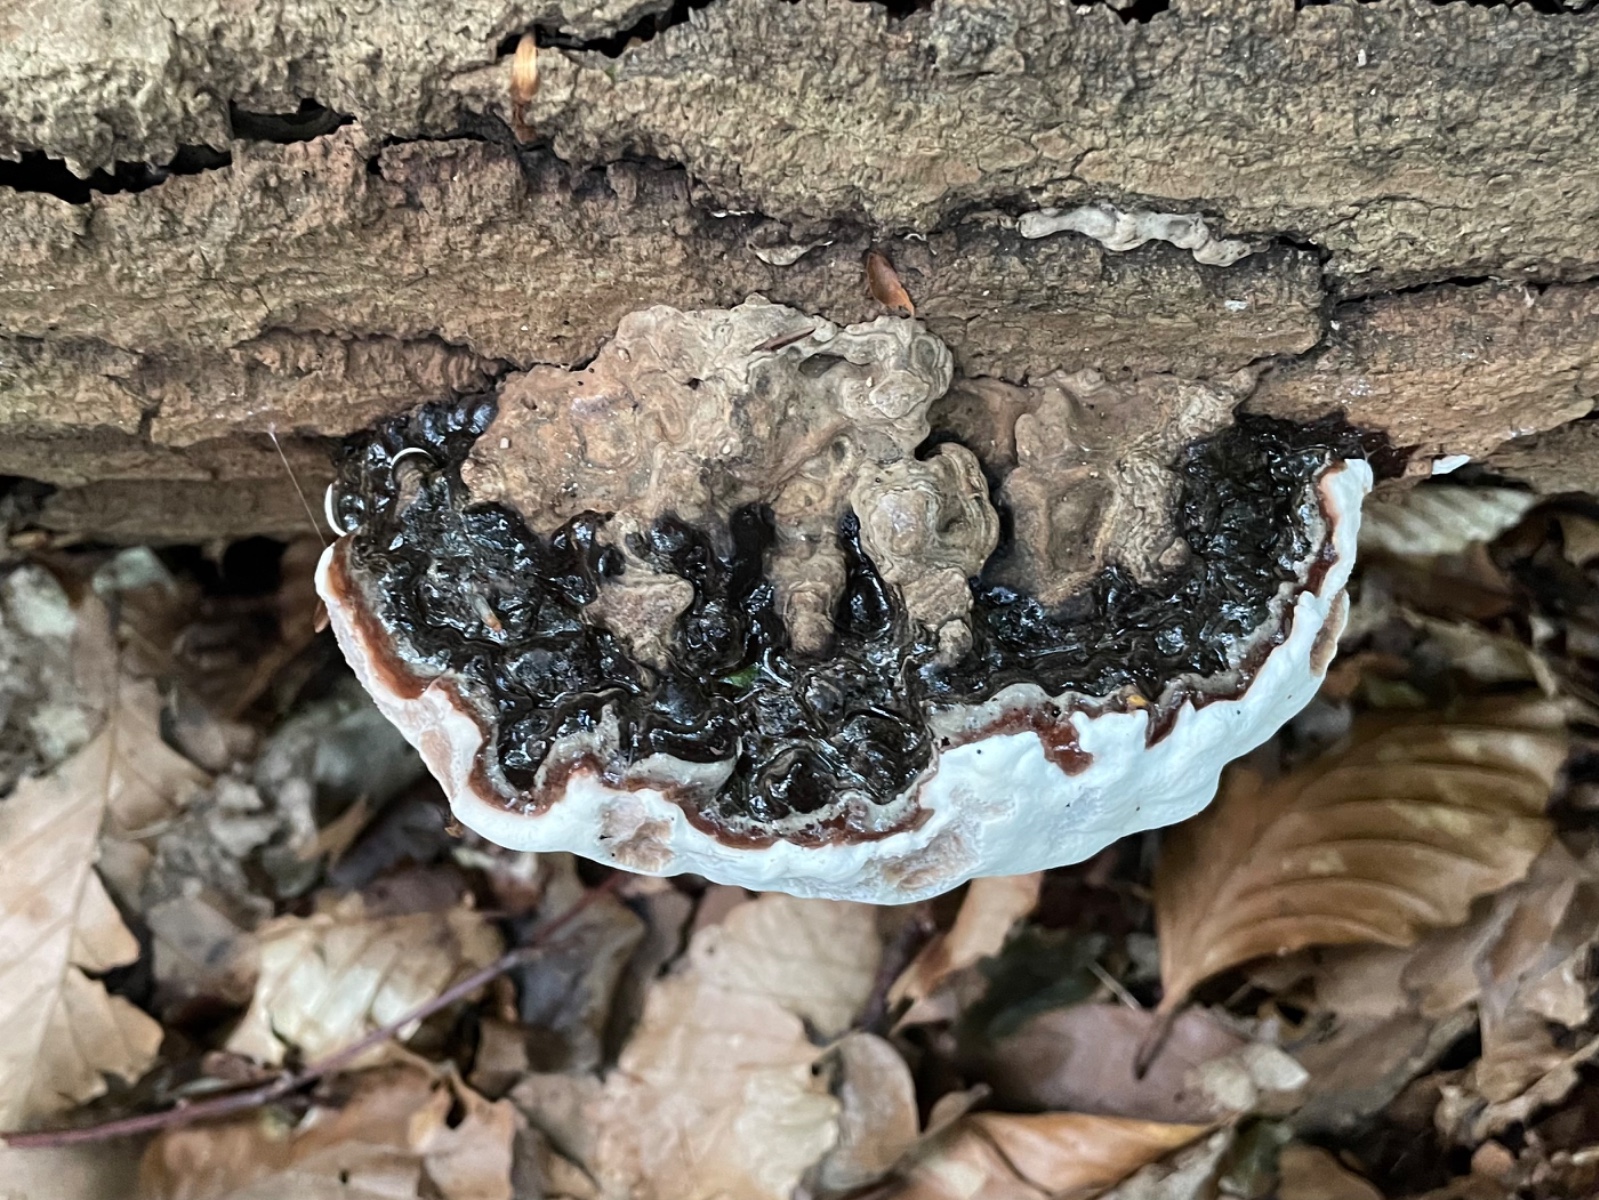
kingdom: Fungi
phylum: Basidiomycota
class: Agaricomycetes
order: Polyporales
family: Polyporaceae
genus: Ganoderma
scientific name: Ganoderma applanatum
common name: flad lakporesvamp
